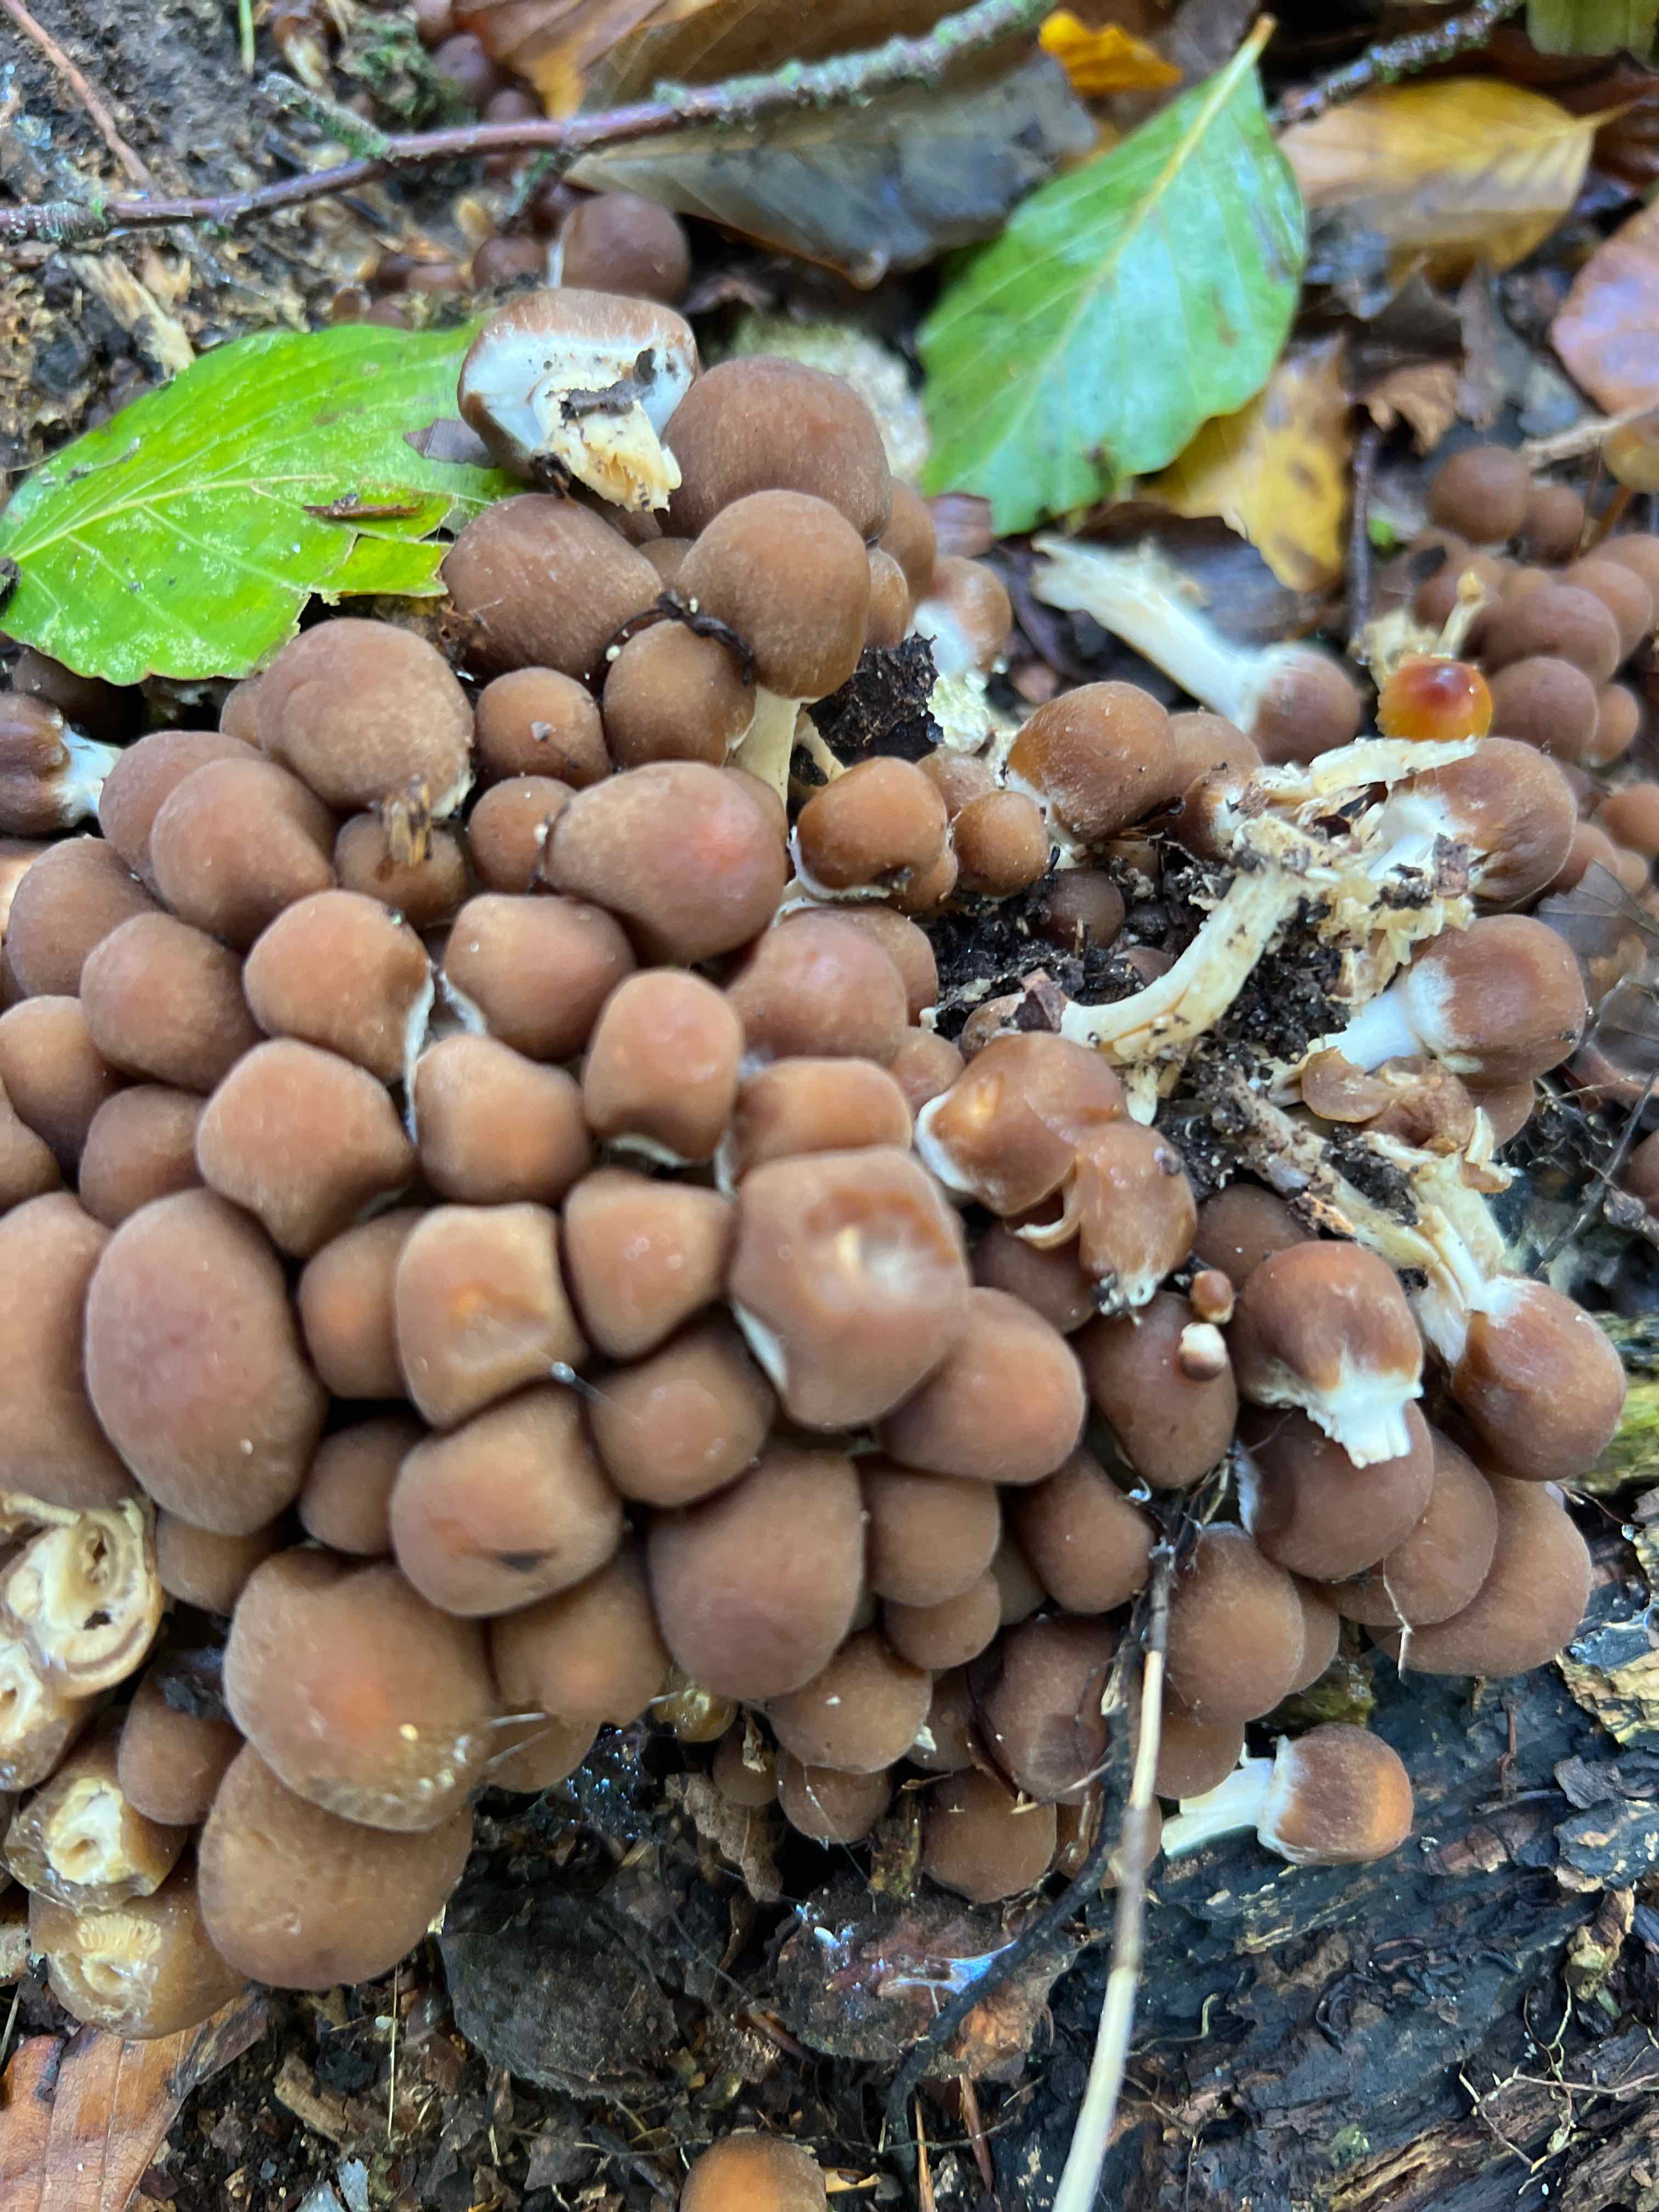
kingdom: Fungi
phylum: Basidiomycota
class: Agaricomycetes
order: Agaricales
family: Psathyrellaceae
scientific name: Psathyrellaceae
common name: mørkhatfamilien
